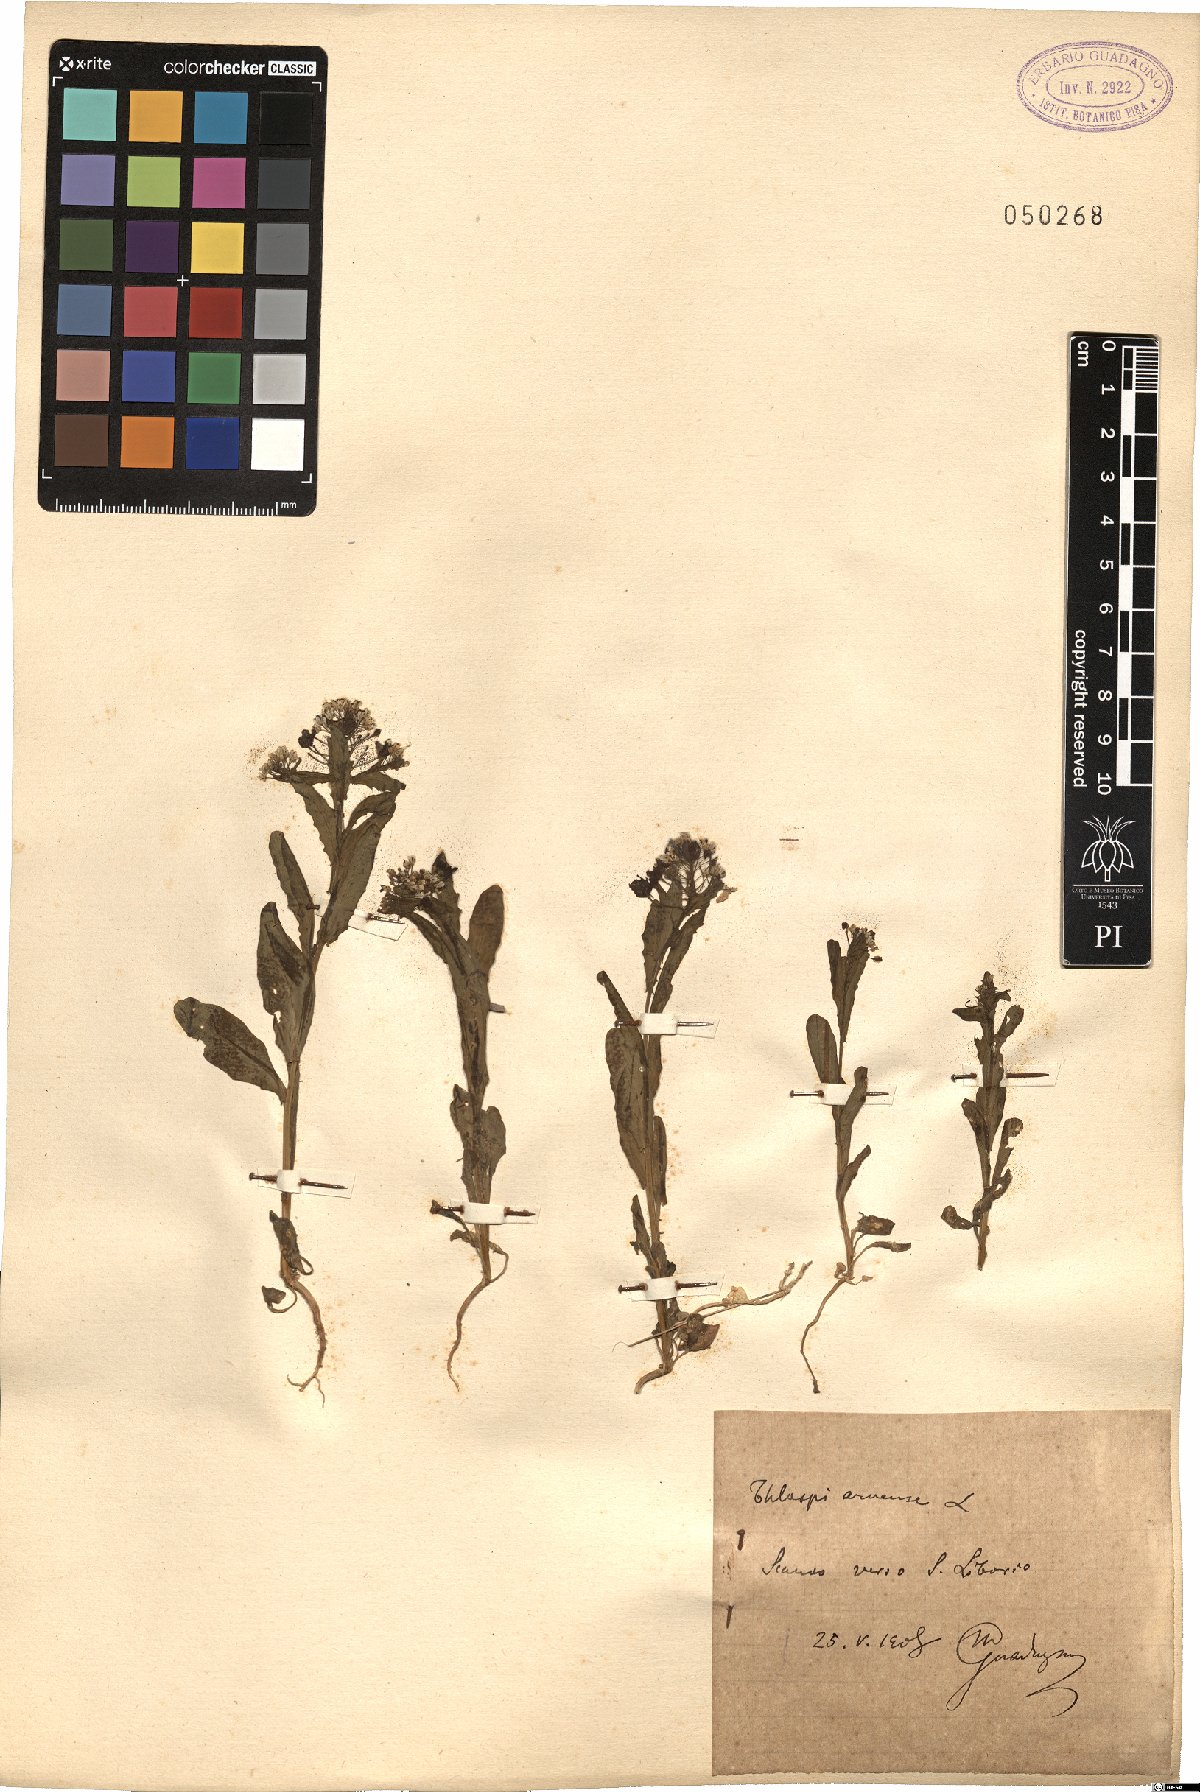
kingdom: Plantae
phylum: Tracheophyta
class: Magnoliopsida
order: Brassicales
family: Brassicaceae
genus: Thlaspi
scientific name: Thlaspi arvense
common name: Field pennycress
